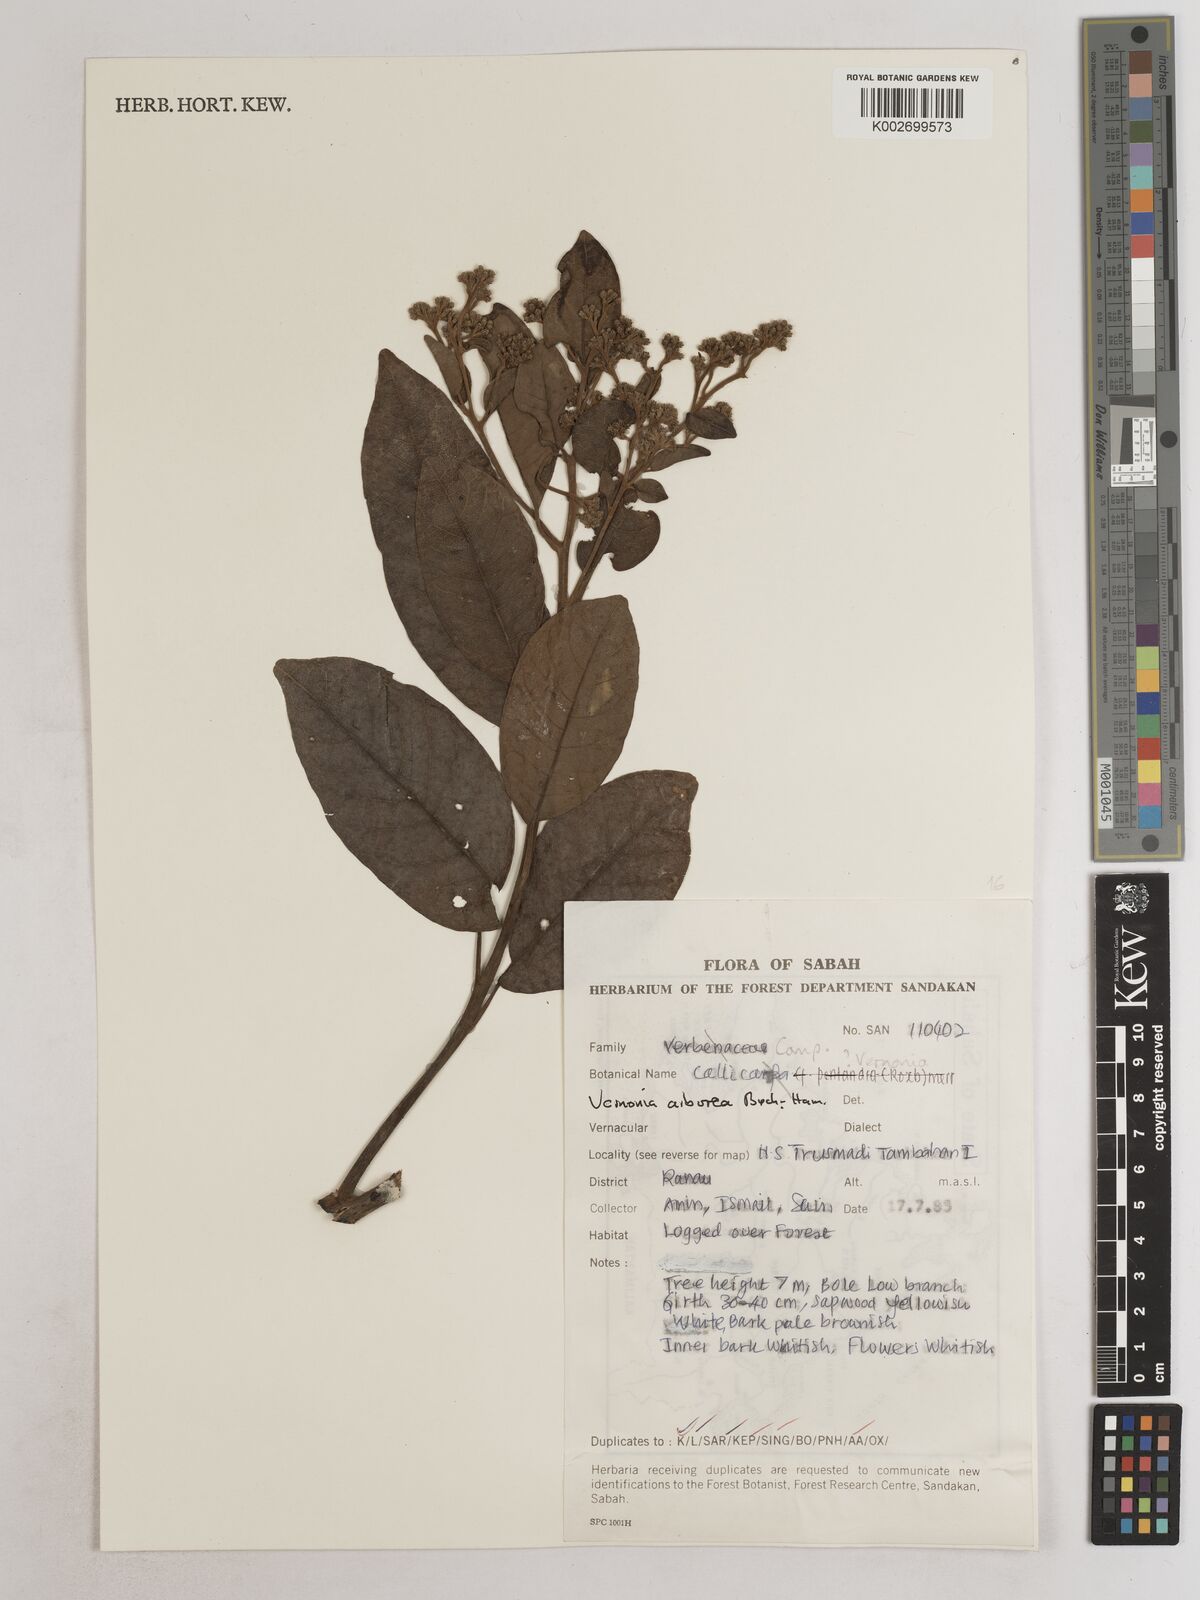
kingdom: Plantae
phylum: Tracheophyta
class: Magnoliopsida
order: Asterales
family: Asteraceae
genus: Strobocalyx
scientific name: Strobocalyx arborea
